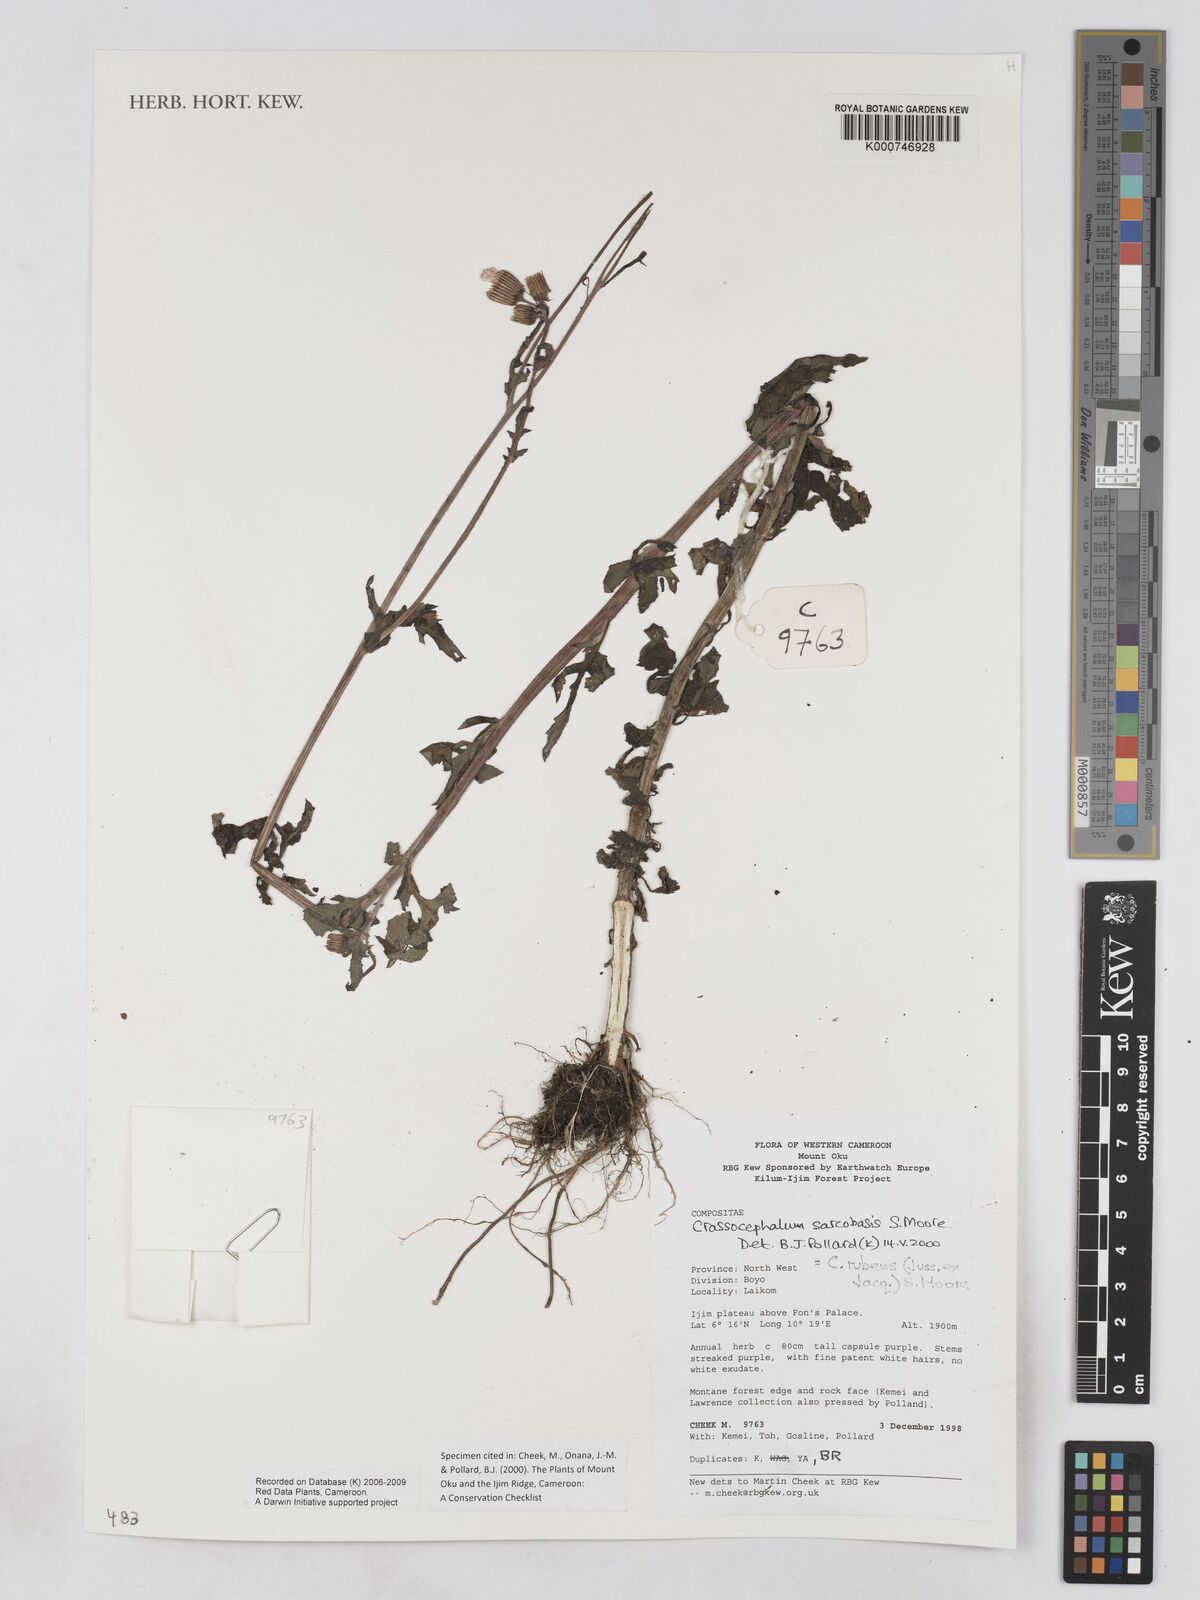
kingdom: Plantae
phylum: Tracheophyta
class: Magnoliopsida
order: Asterales
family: Asteraceae
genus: Crassocephalum
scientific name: Crassocephalum rubens
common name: Yoruban bologi
